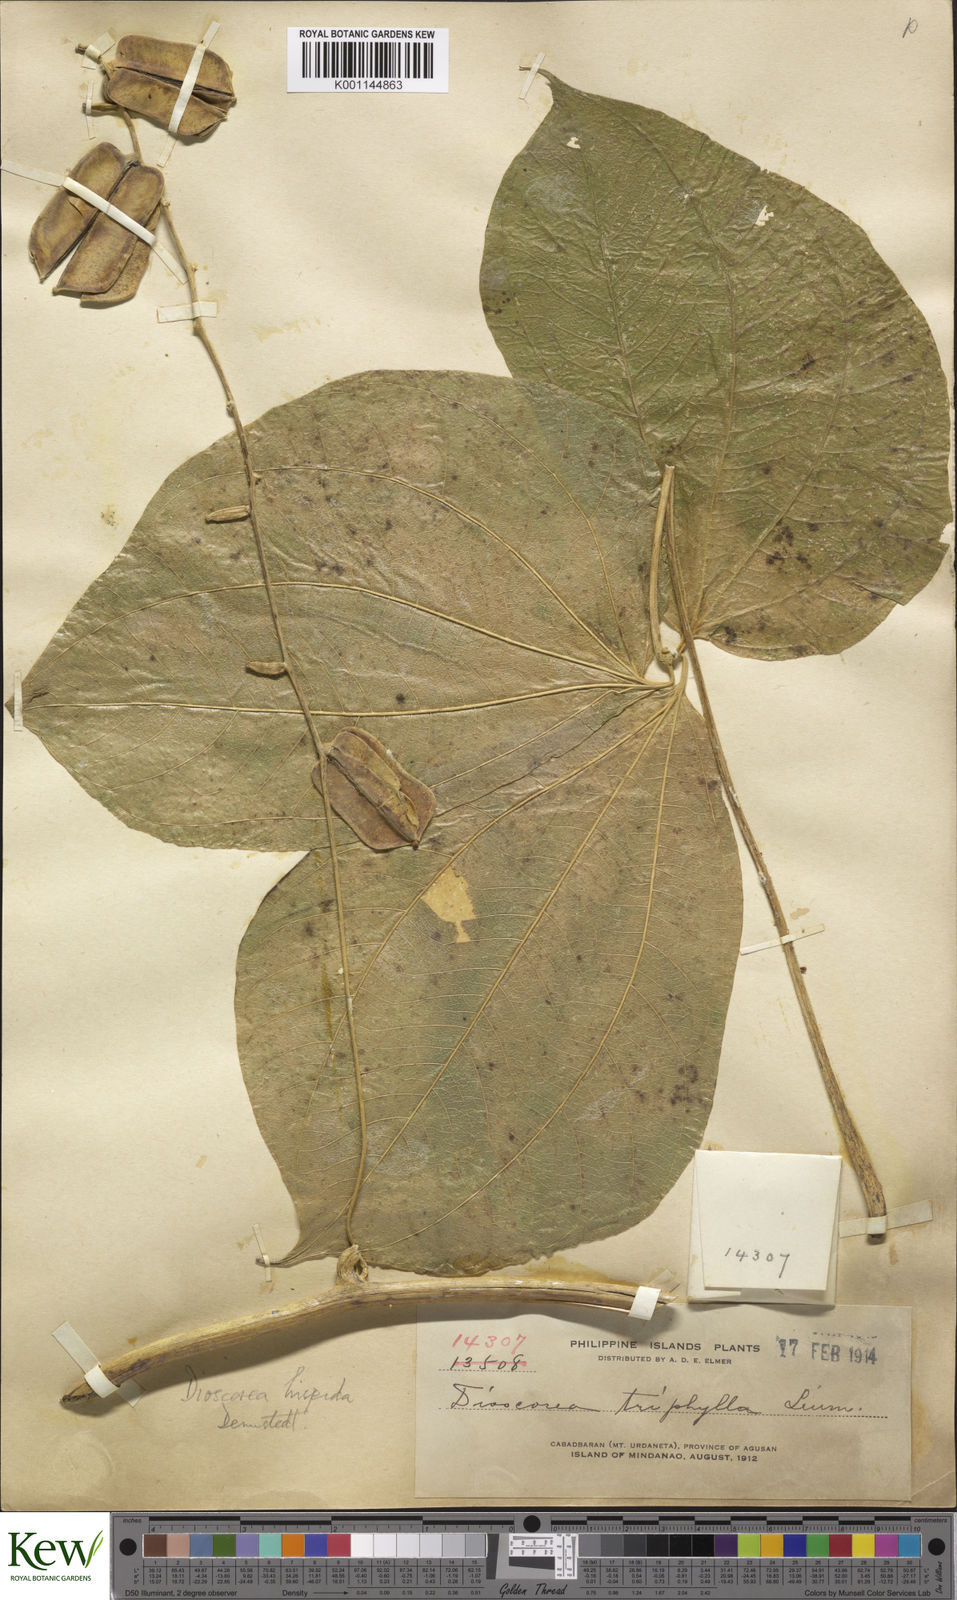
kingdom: Plantae
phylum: Tracheophyta
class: Liliopsida
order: Dioscoreales
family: Dioscoreaceae
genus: Dioscorea
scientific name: Dioscorea hispida
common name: Asiatic bitter yam
